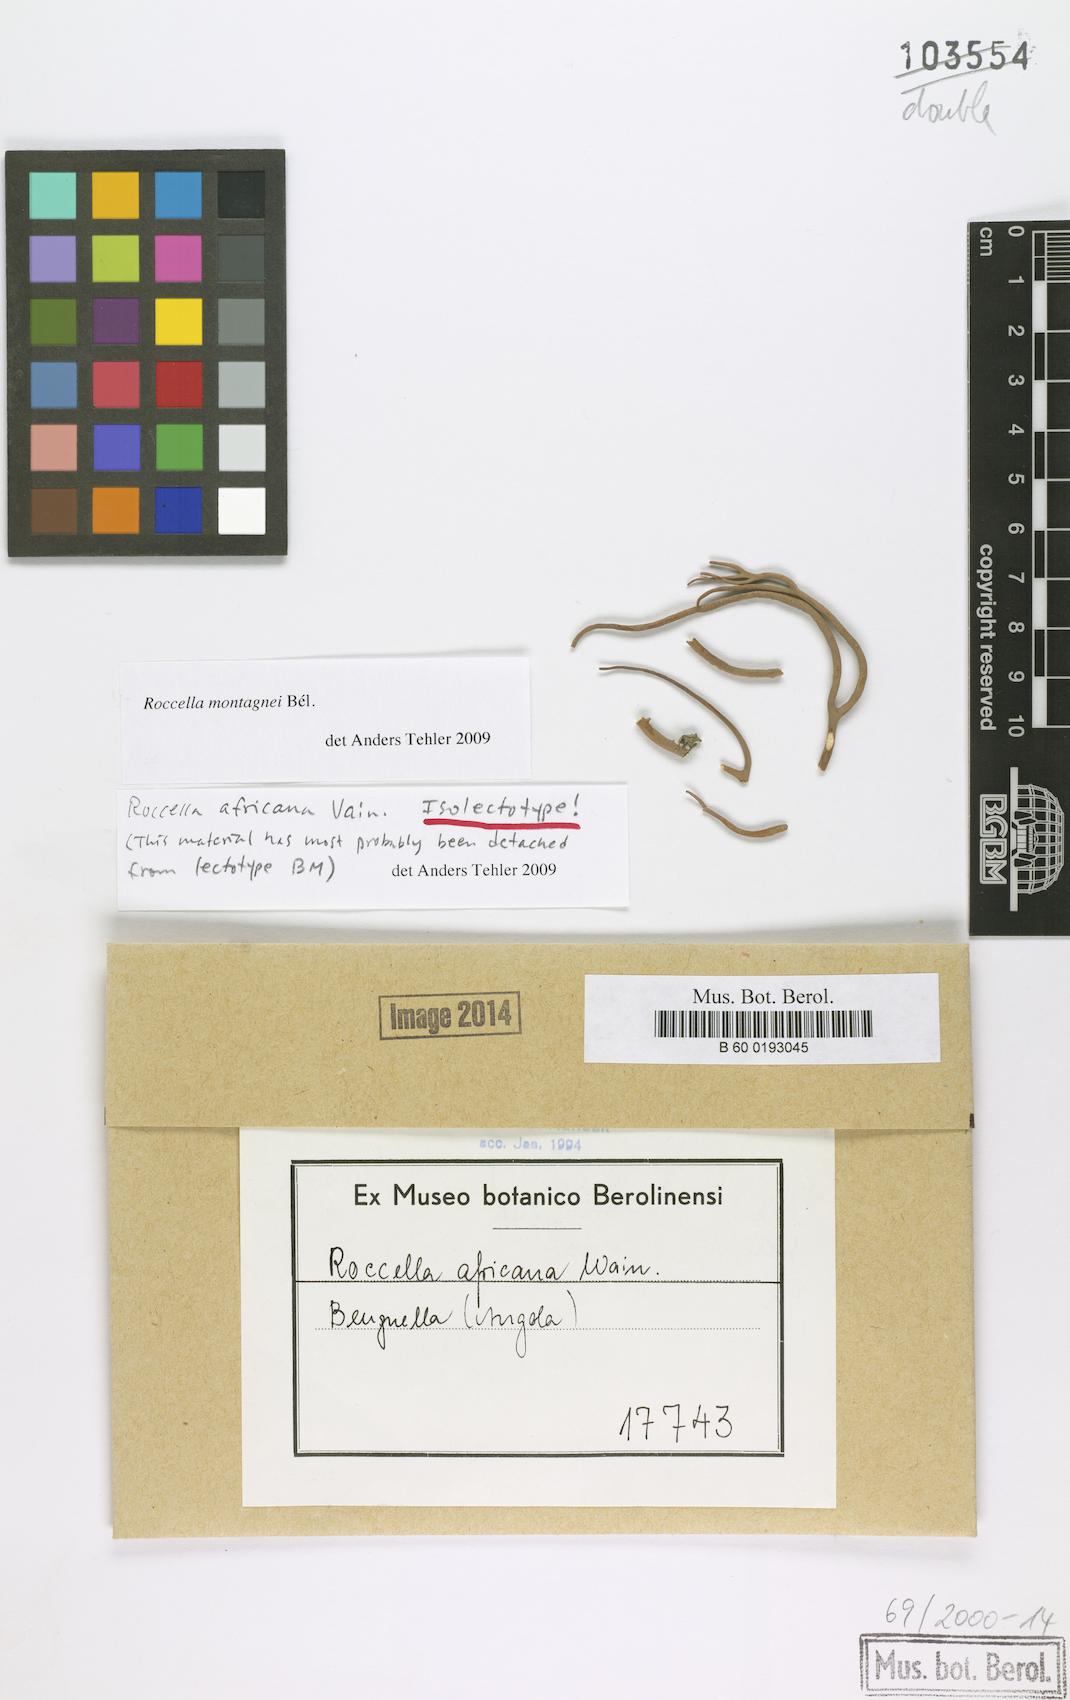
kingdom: Fungi
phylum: Ascomycota
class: Arthoniomycetes
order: Arthoniales
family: Roccellaceae
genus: Roccella
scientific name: Roccella africana
